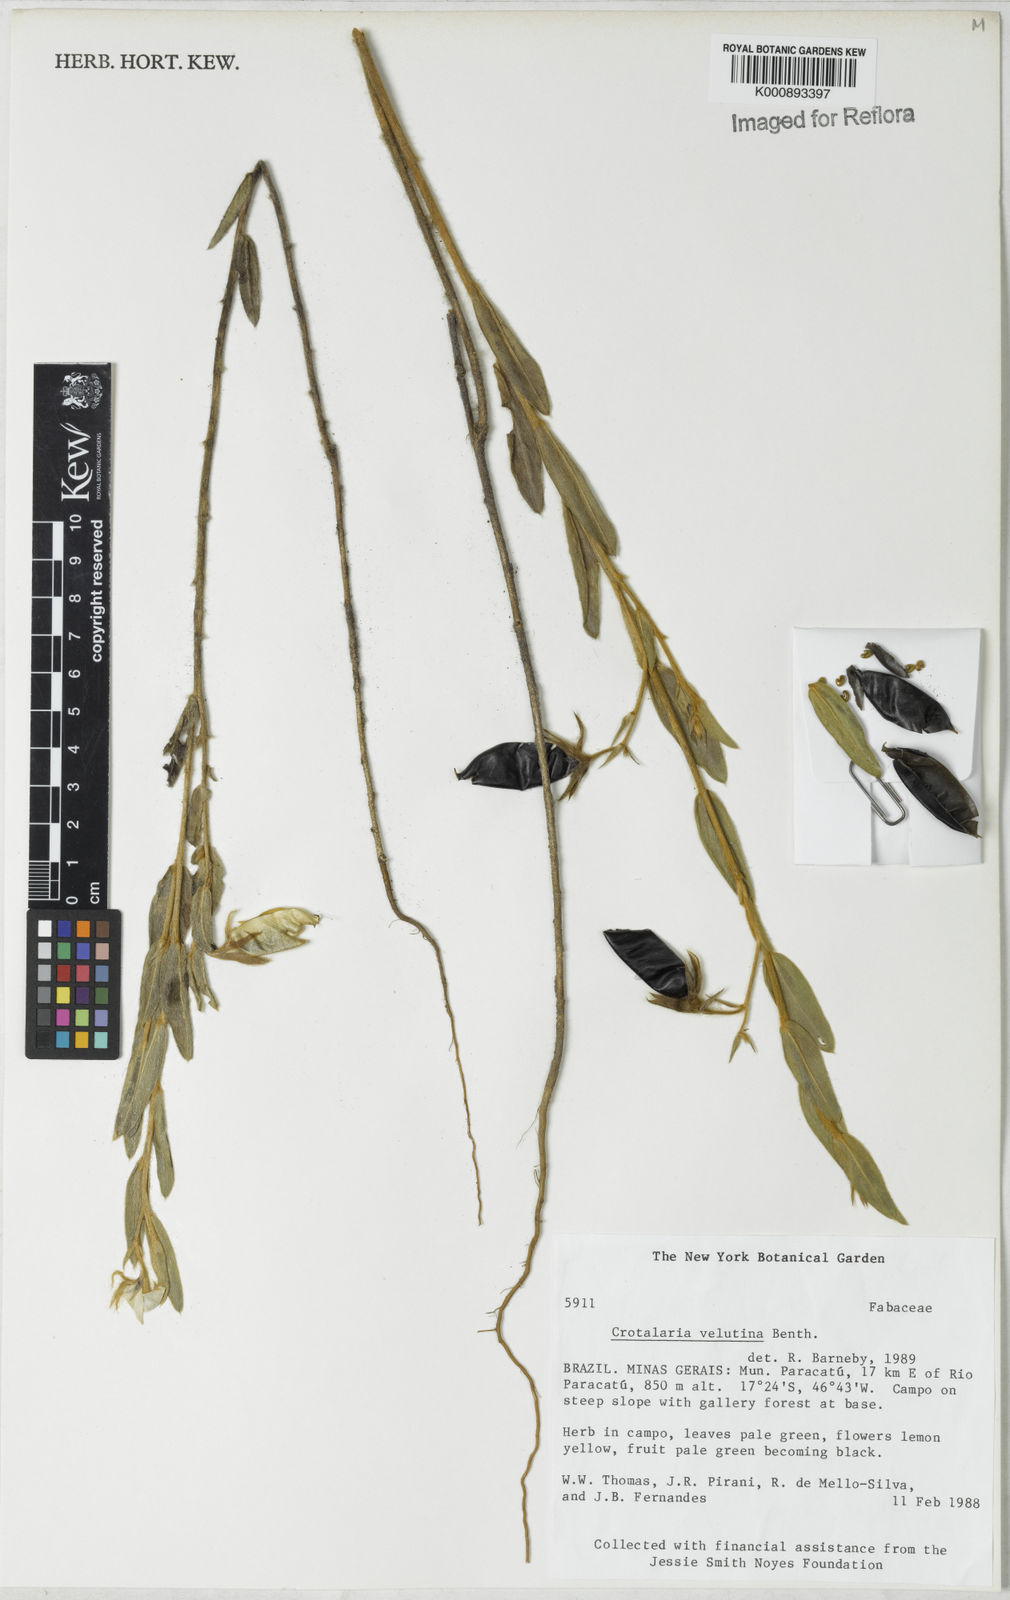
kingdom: Plantae
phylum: Tracheophyta
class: Magnoliopsida
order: Fabales
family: Fabaceae
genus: Crotalaria
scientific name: Crotalaria velutina
